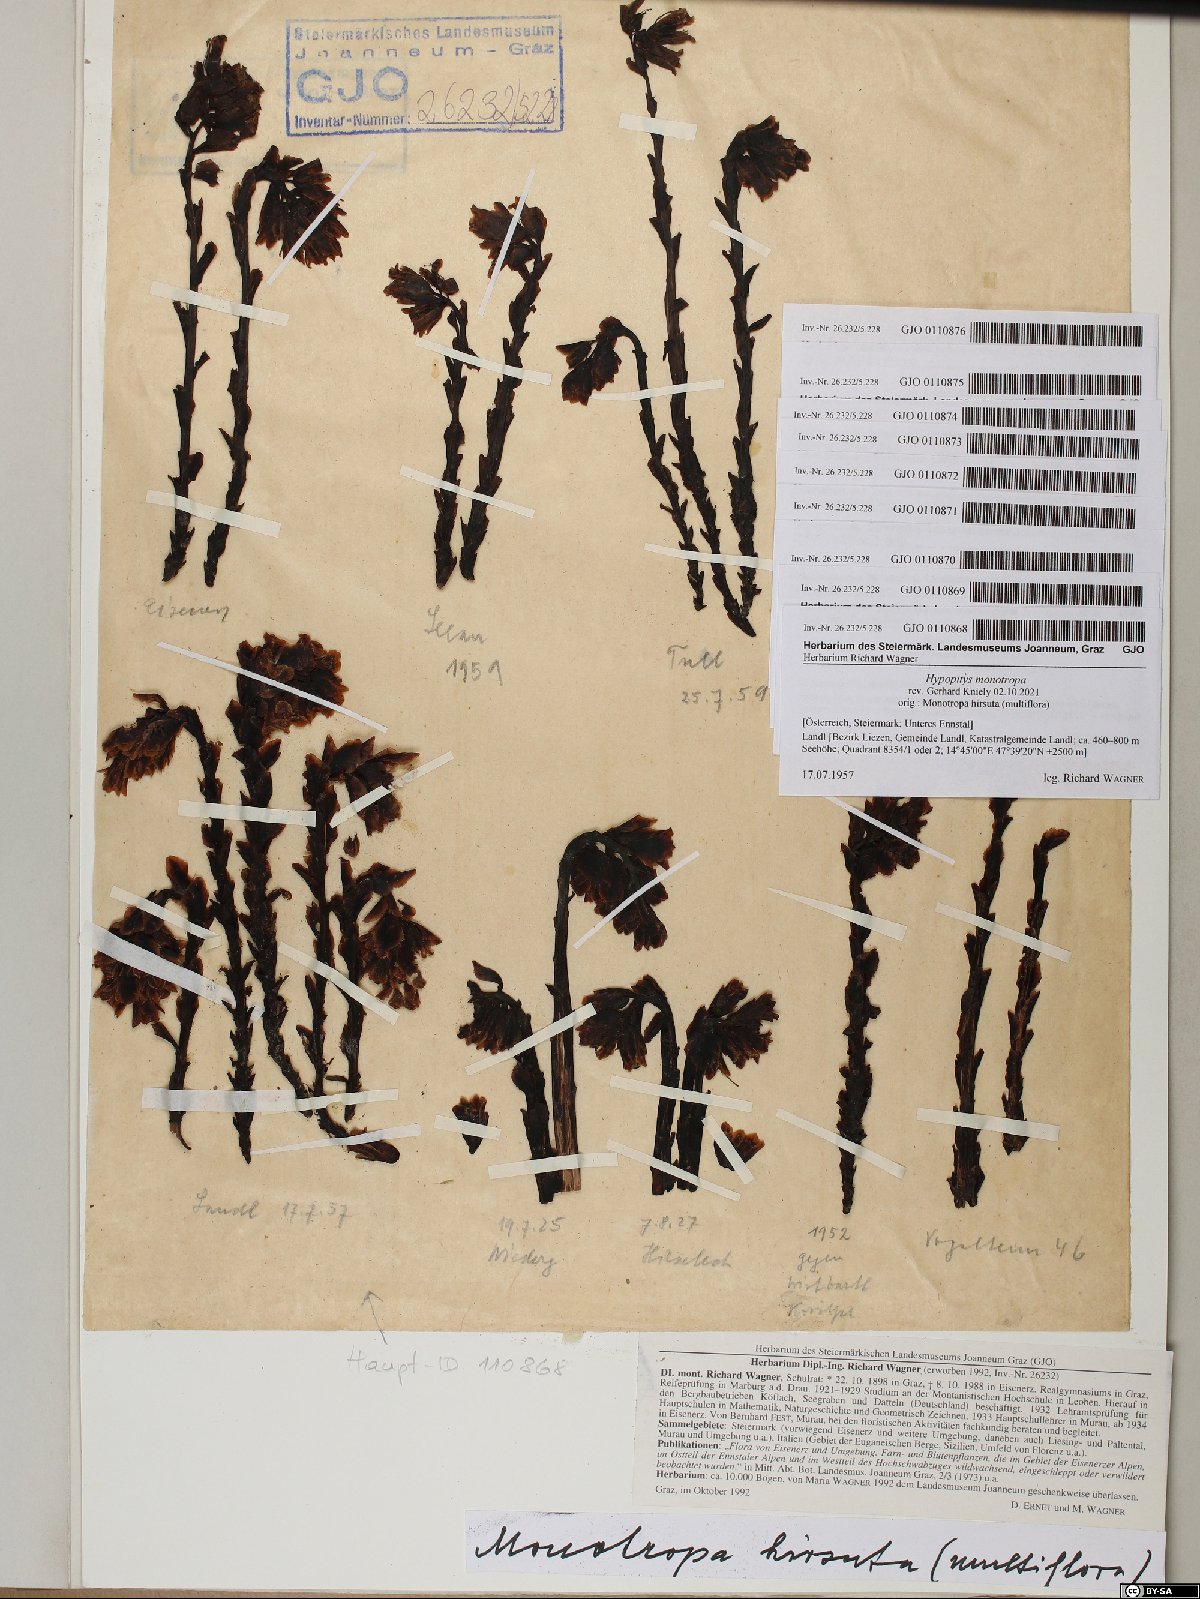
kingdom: Plantae
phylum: Tracheophyta
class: Magnoliopsida
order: Ericales
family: Ericaceae
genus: Hypopitys
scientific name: Hypopitys monotropa
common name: Yellow bird's-nest
